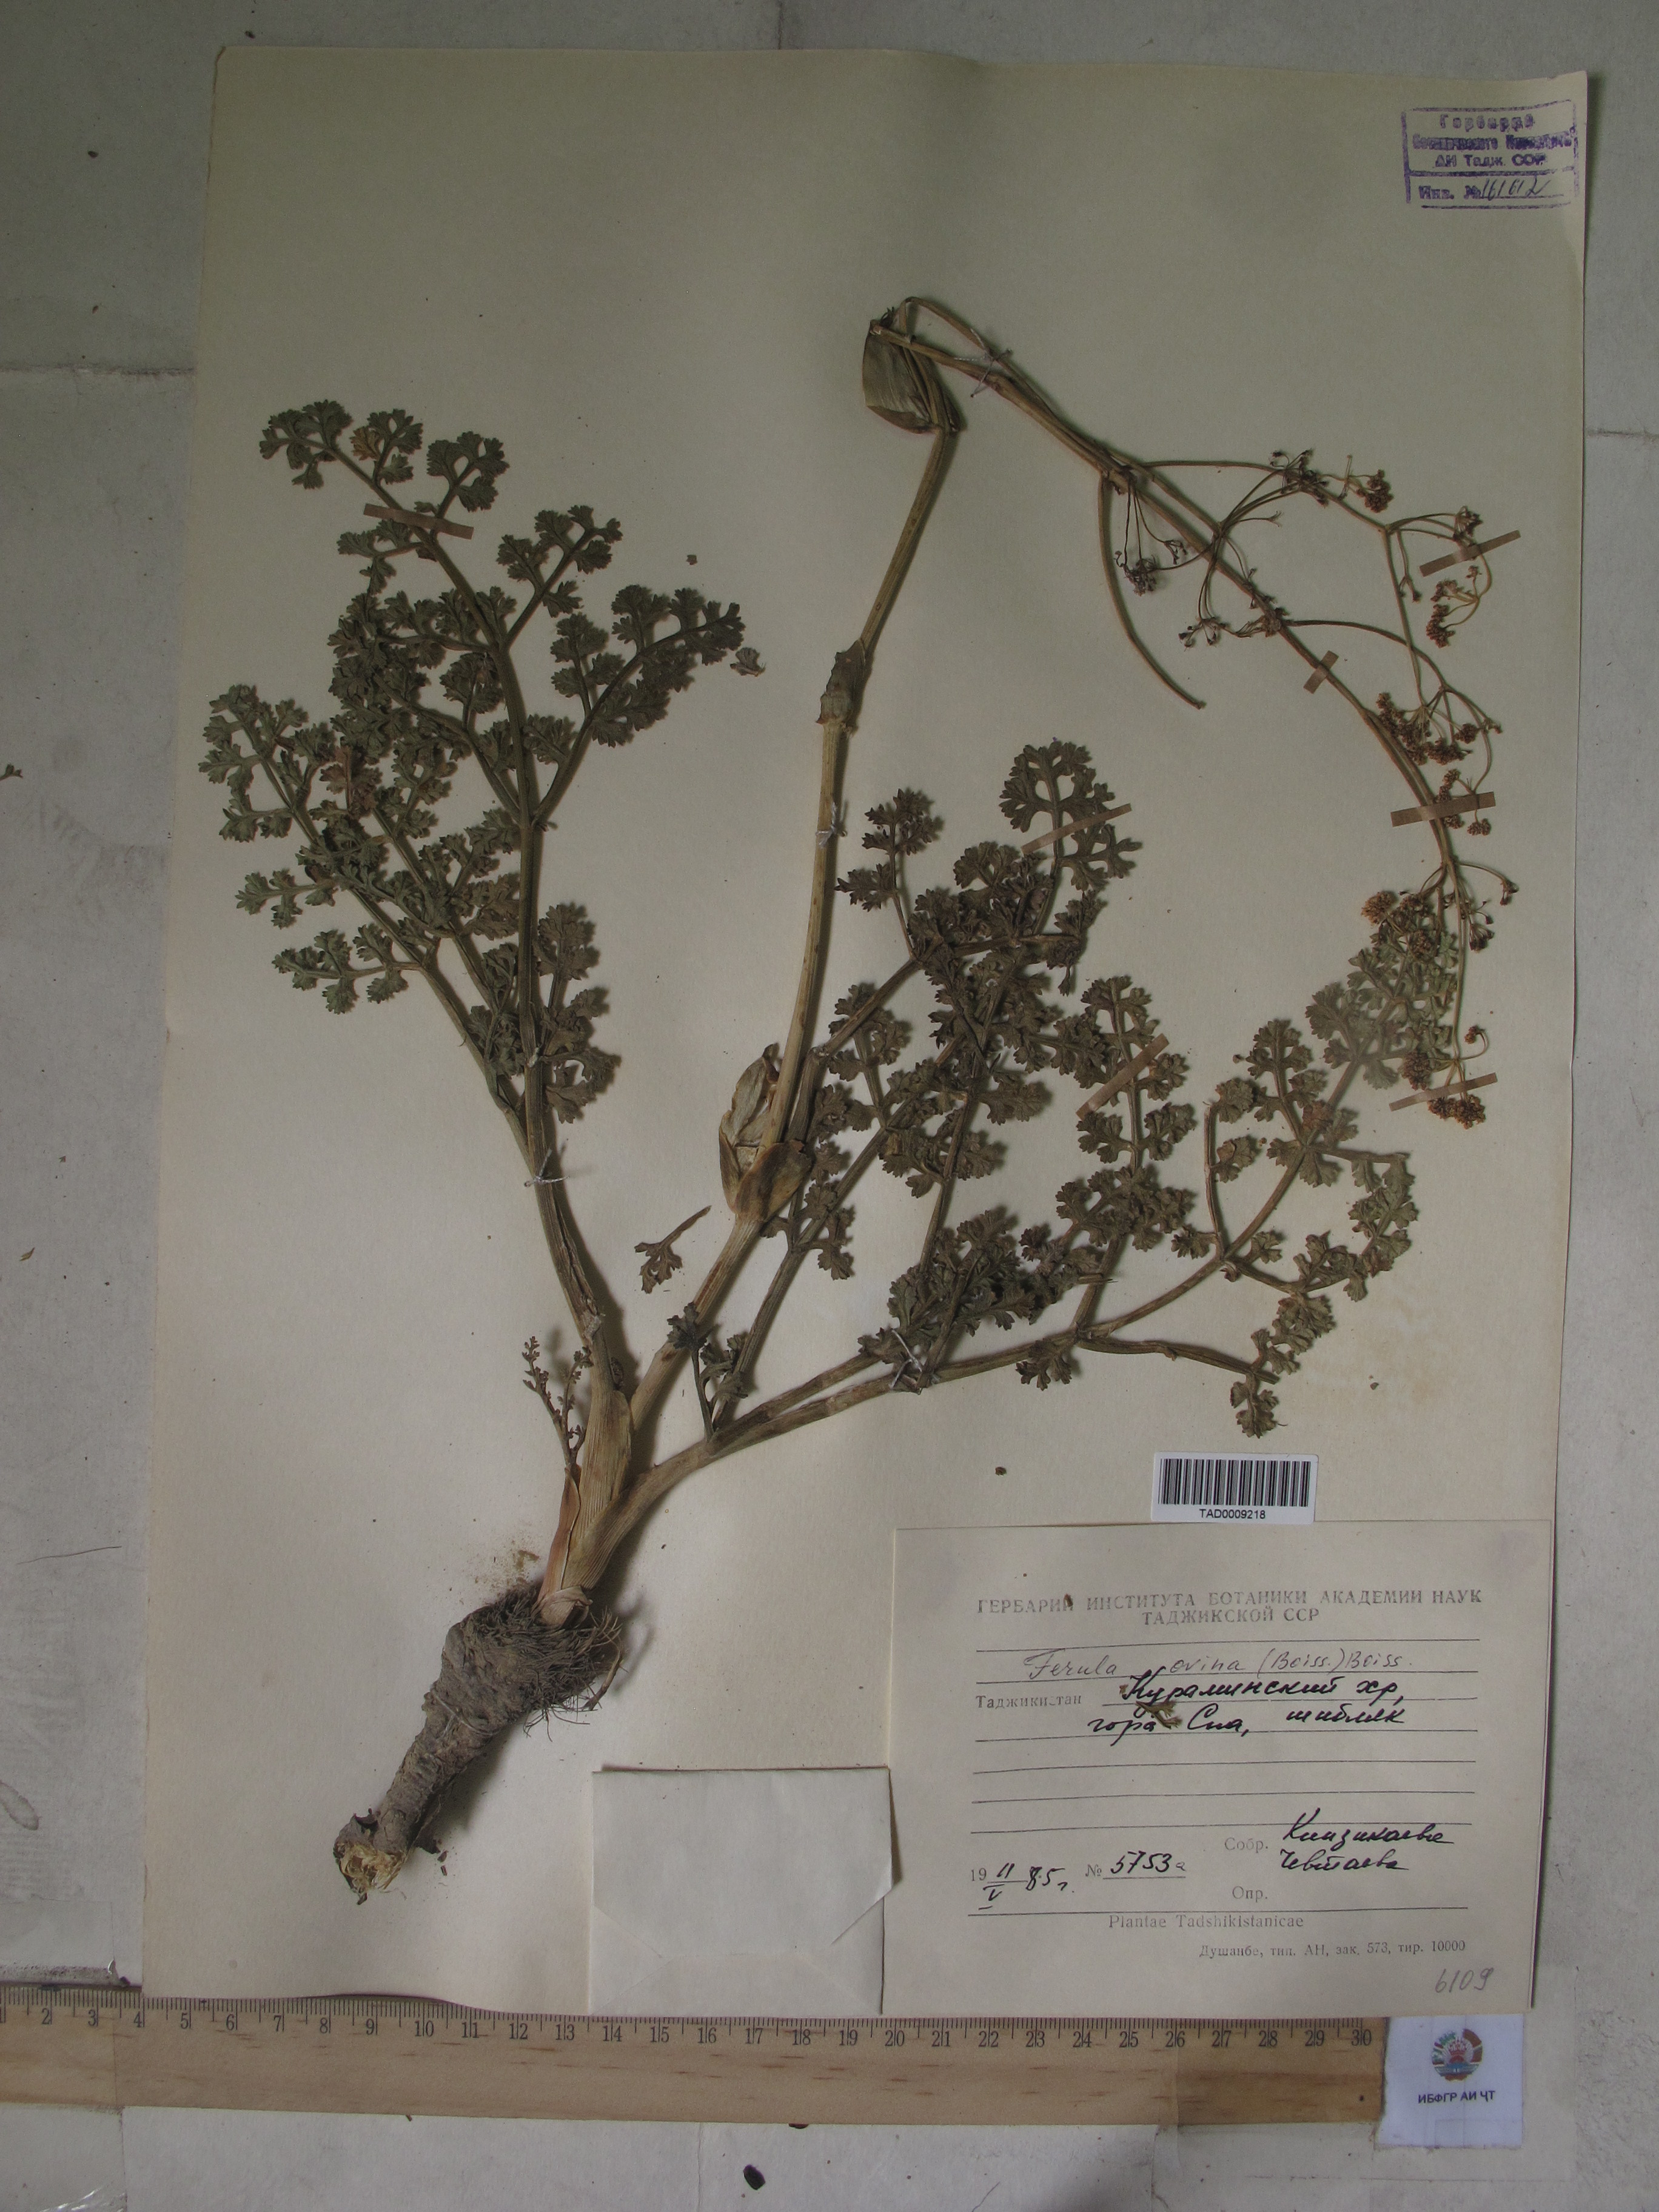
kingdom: Plantae
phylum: Tracheophyta
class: Magnoliopsida
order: Apiales
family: Apiaceae
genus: Ferula
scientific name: Ferula ovina
